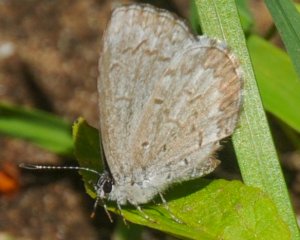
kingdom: Animalia
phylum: Arthropoda
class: Insecta
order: Lepidoptera
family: Lycaenidae
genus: Celastrina
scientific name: Celastrina lucia
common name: Northern Spring Azure
